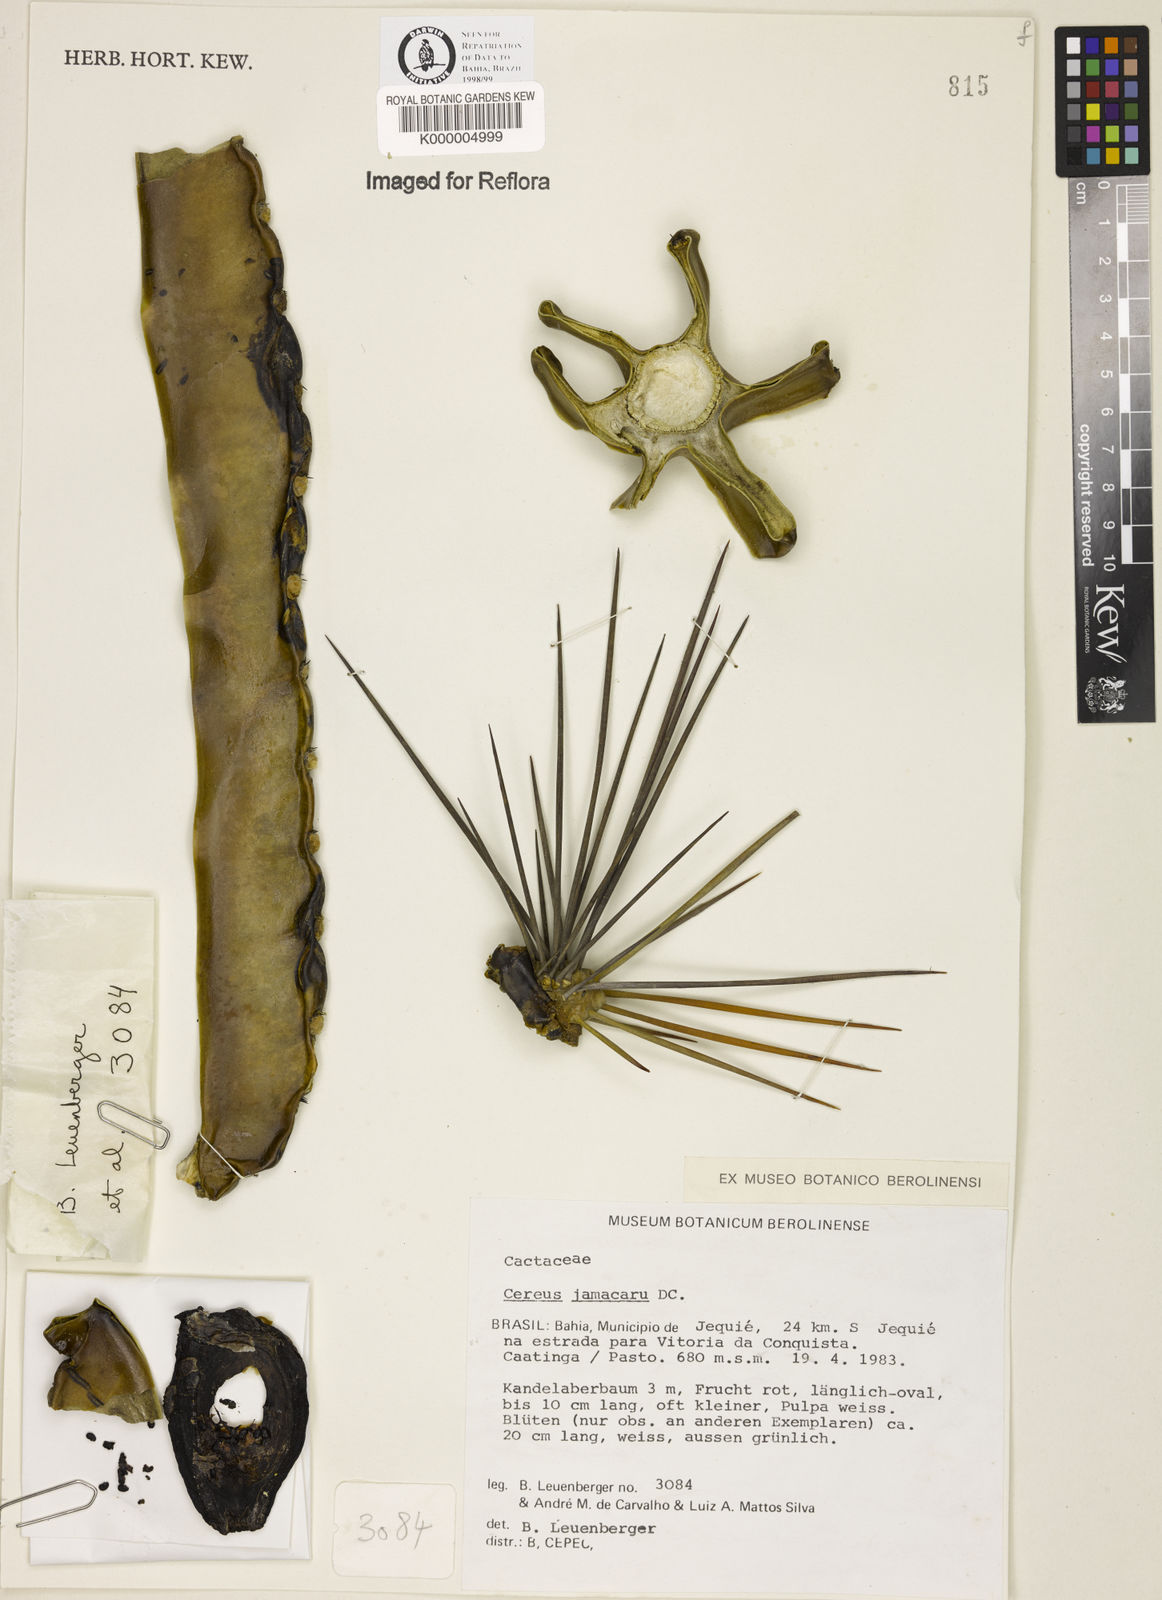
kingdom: Plantae
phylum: Tracheophyta
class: Magnoliopsida
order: Caryophyllales
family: Cactaceae
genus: Cereus
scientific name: Cereus jamacaru
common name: Queen-of-the-night
